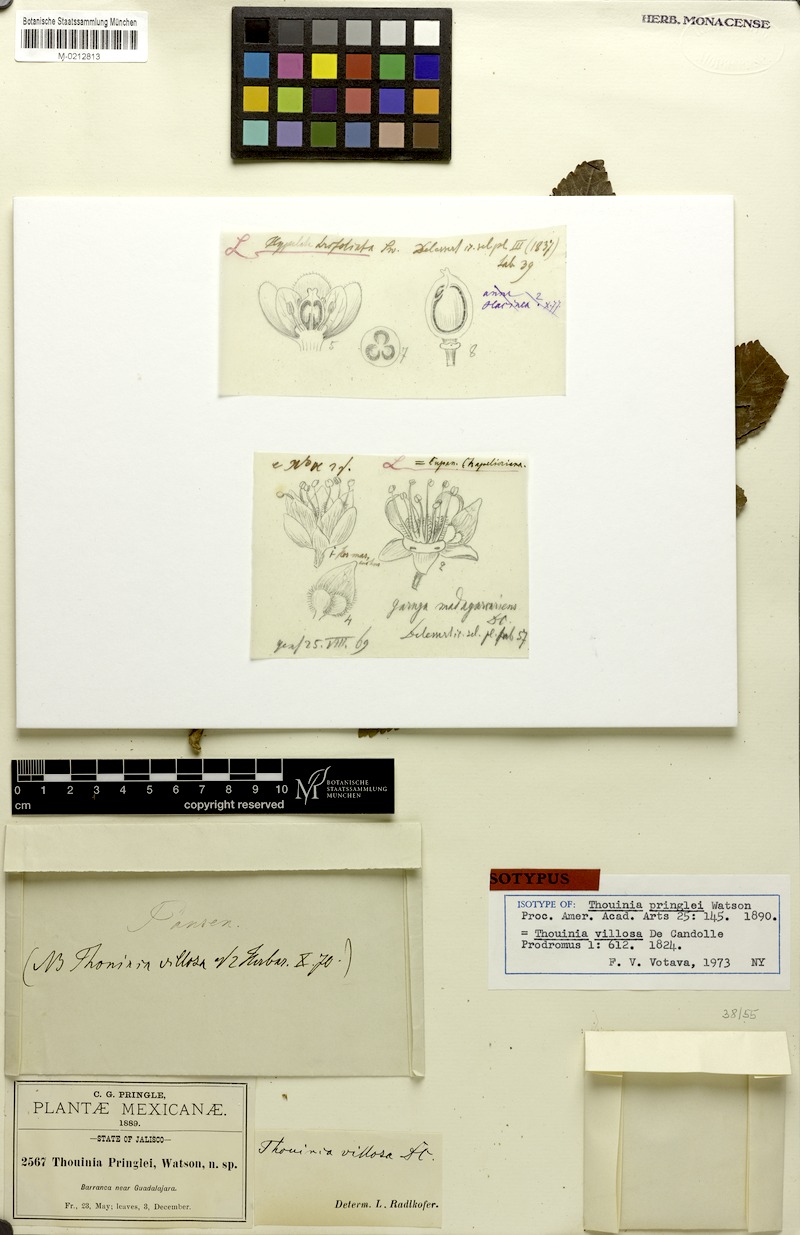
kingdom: Plantae
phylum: Tracheophyta
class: Magnoliopsida
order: Sapindales
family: Sapindaceae
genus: Thouinia
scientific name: Thouinia villosa
